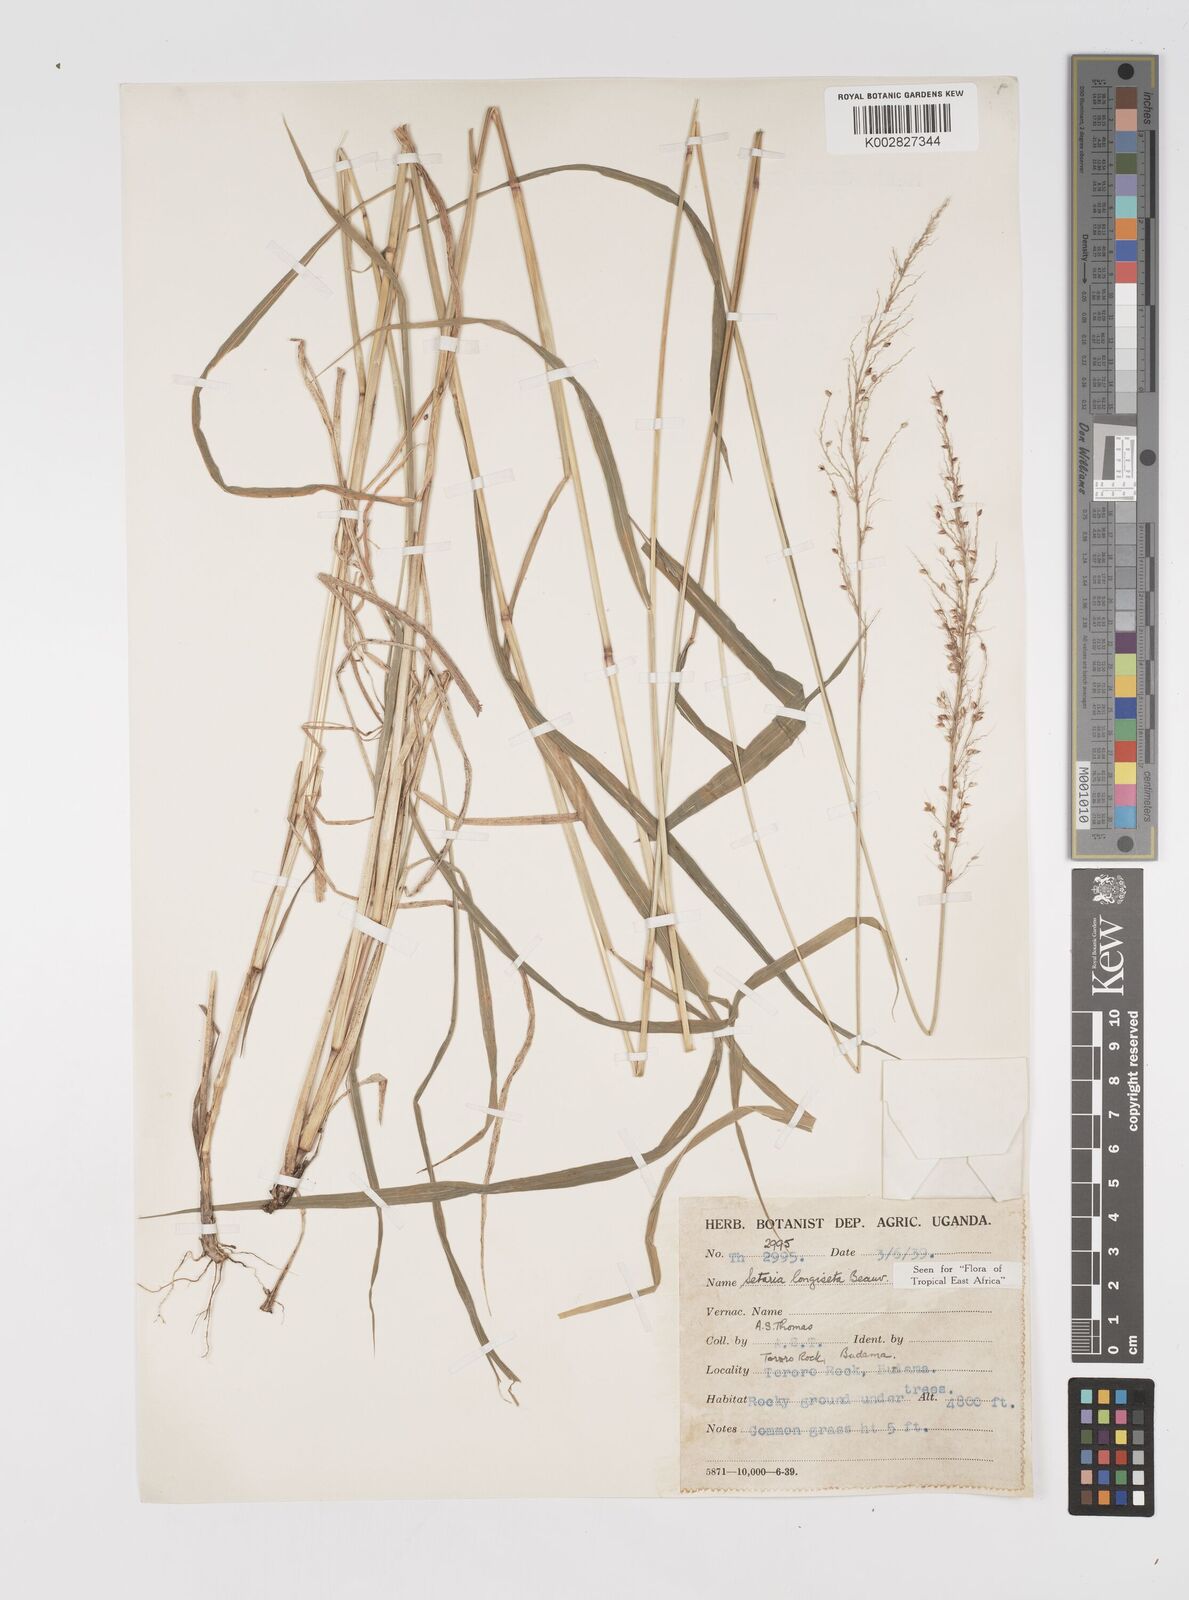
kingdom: Plantae
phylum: Tracheophyta
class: Liliopsida
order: Poales
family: Poaceae
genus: Setaria
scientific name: Setaria longiseta
